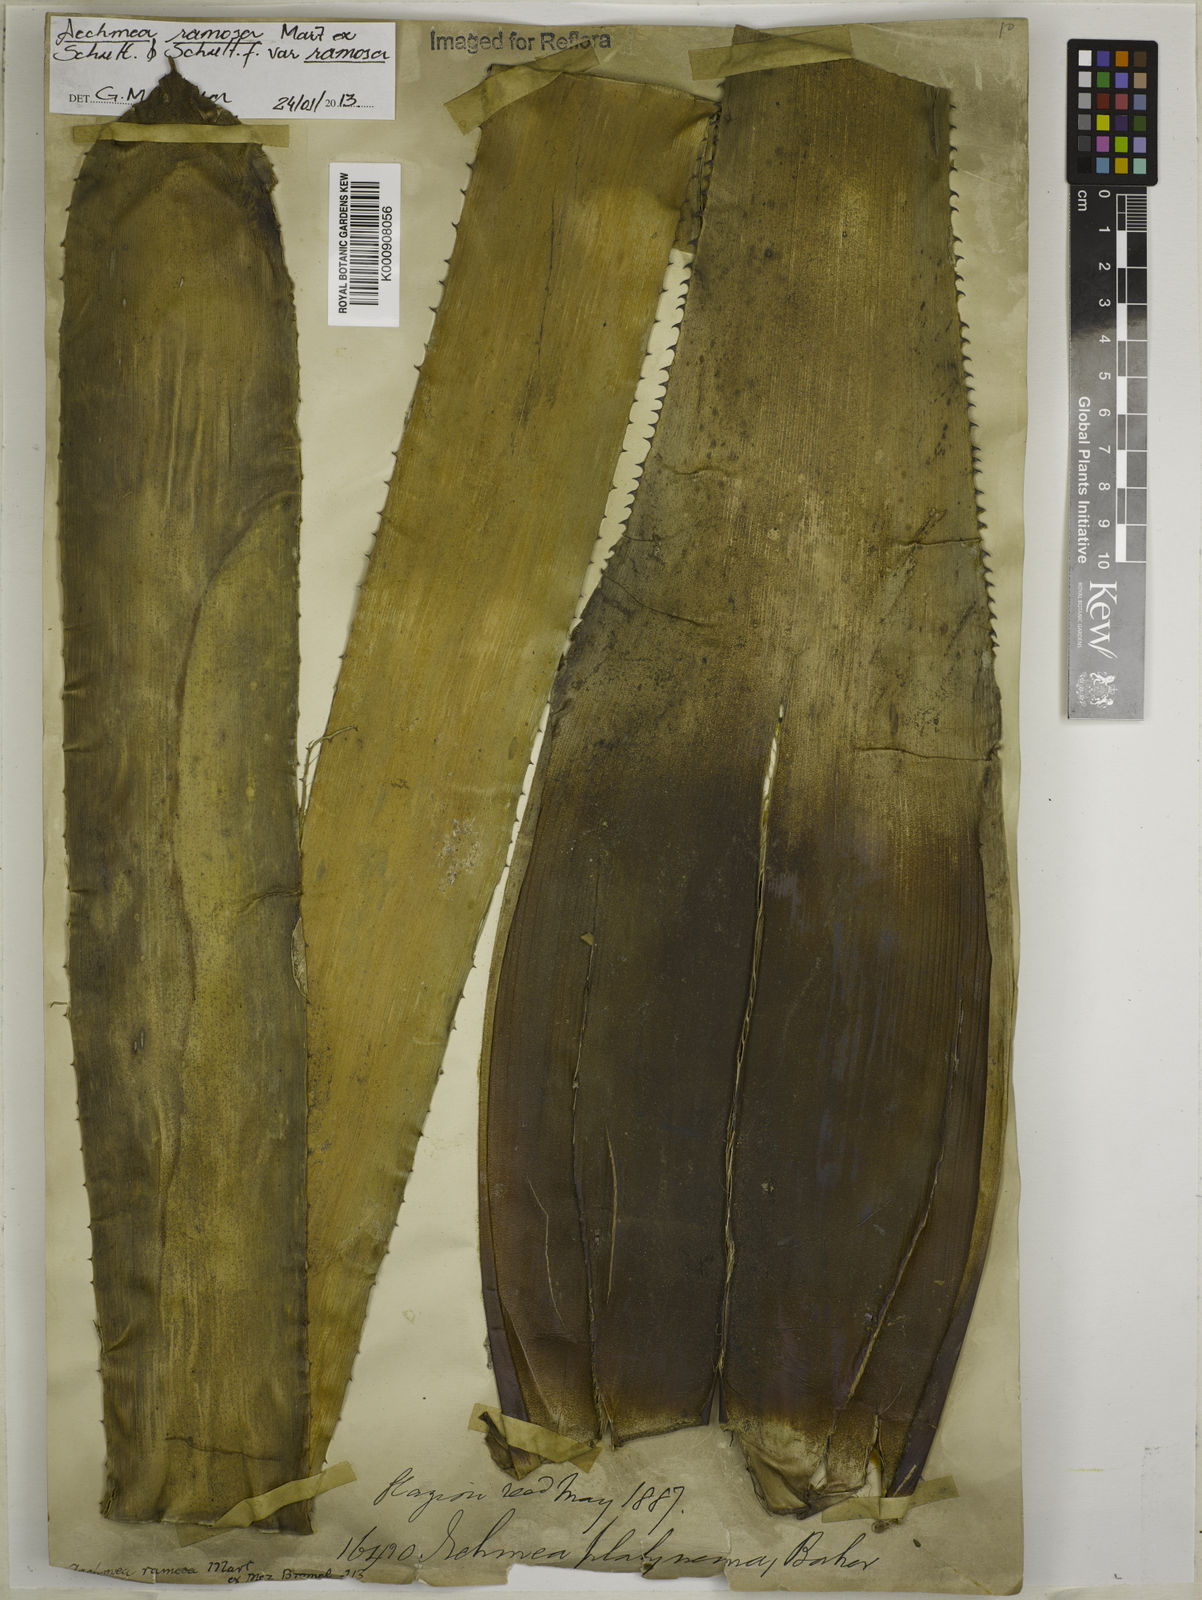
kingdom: Plantae
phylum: Tracheophyta
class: Liliopsida
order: Poales
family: Bromeliaceae
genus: Aechmea
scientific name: Aechmea
